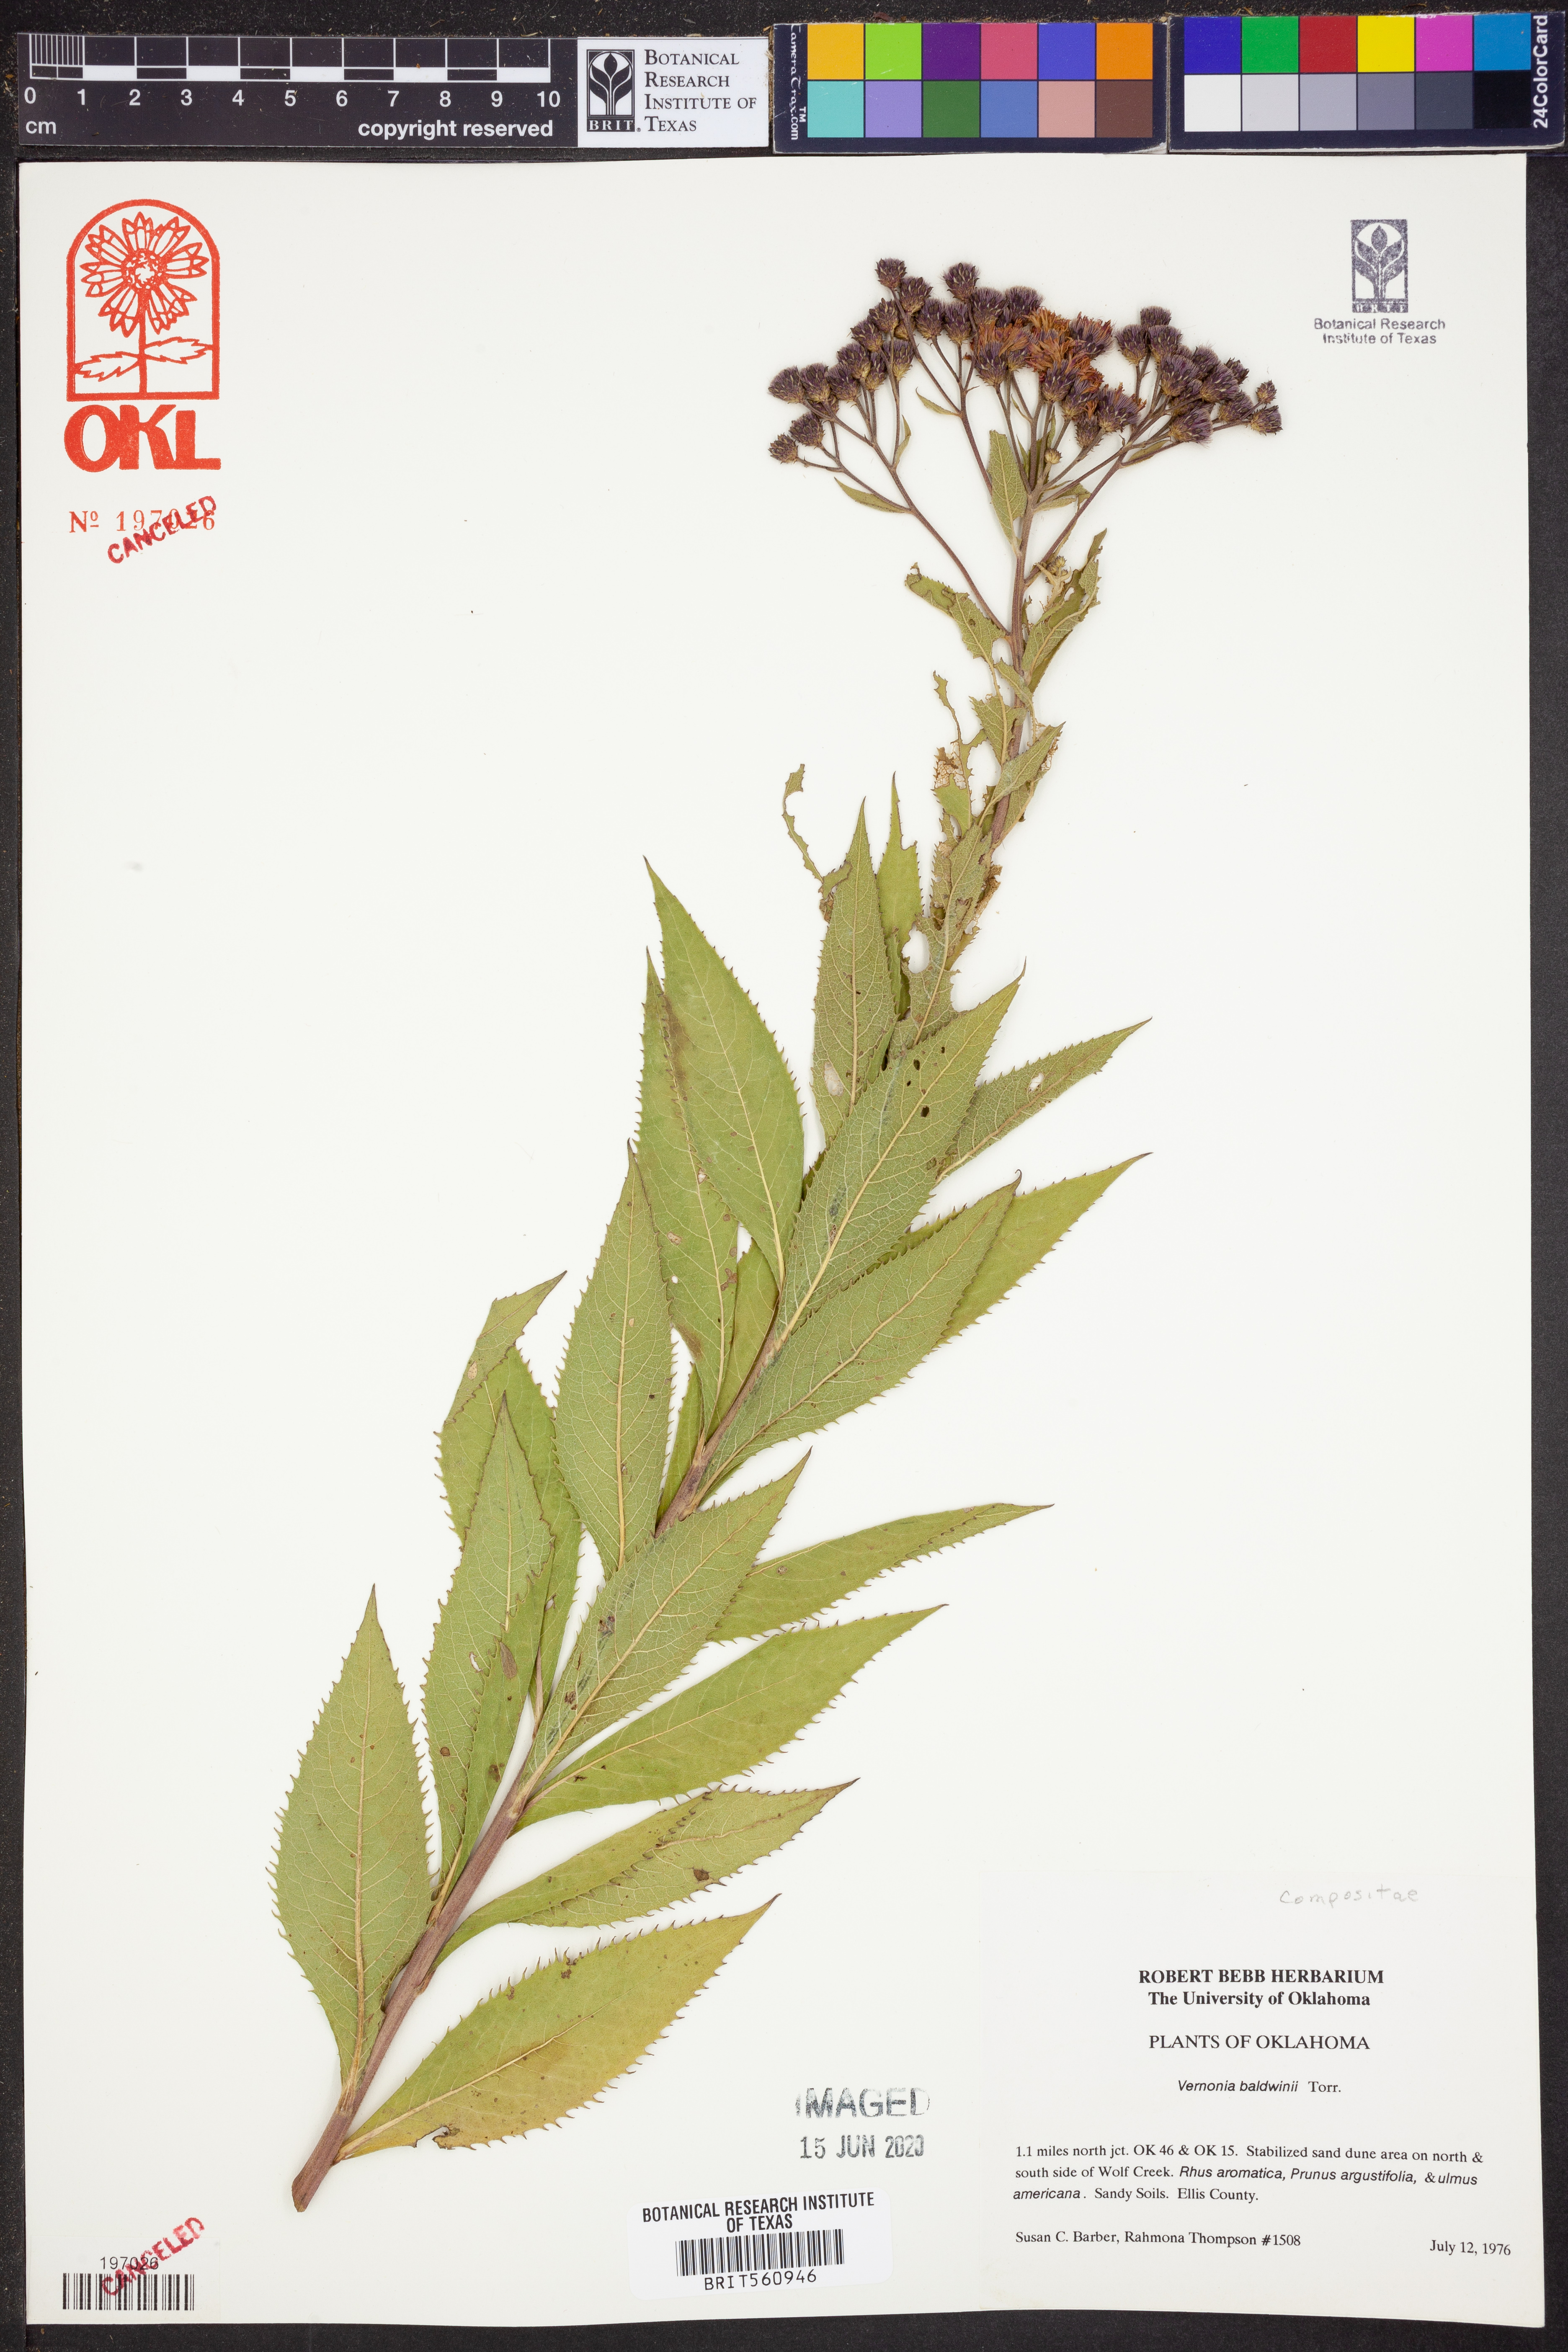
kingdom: Plantae
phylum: Tracheophyta
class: Magnoliopsida
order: Asterales
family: Asteraceae
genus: Vernonia
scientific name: Vernonia baldwinii
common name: Western ironweed
